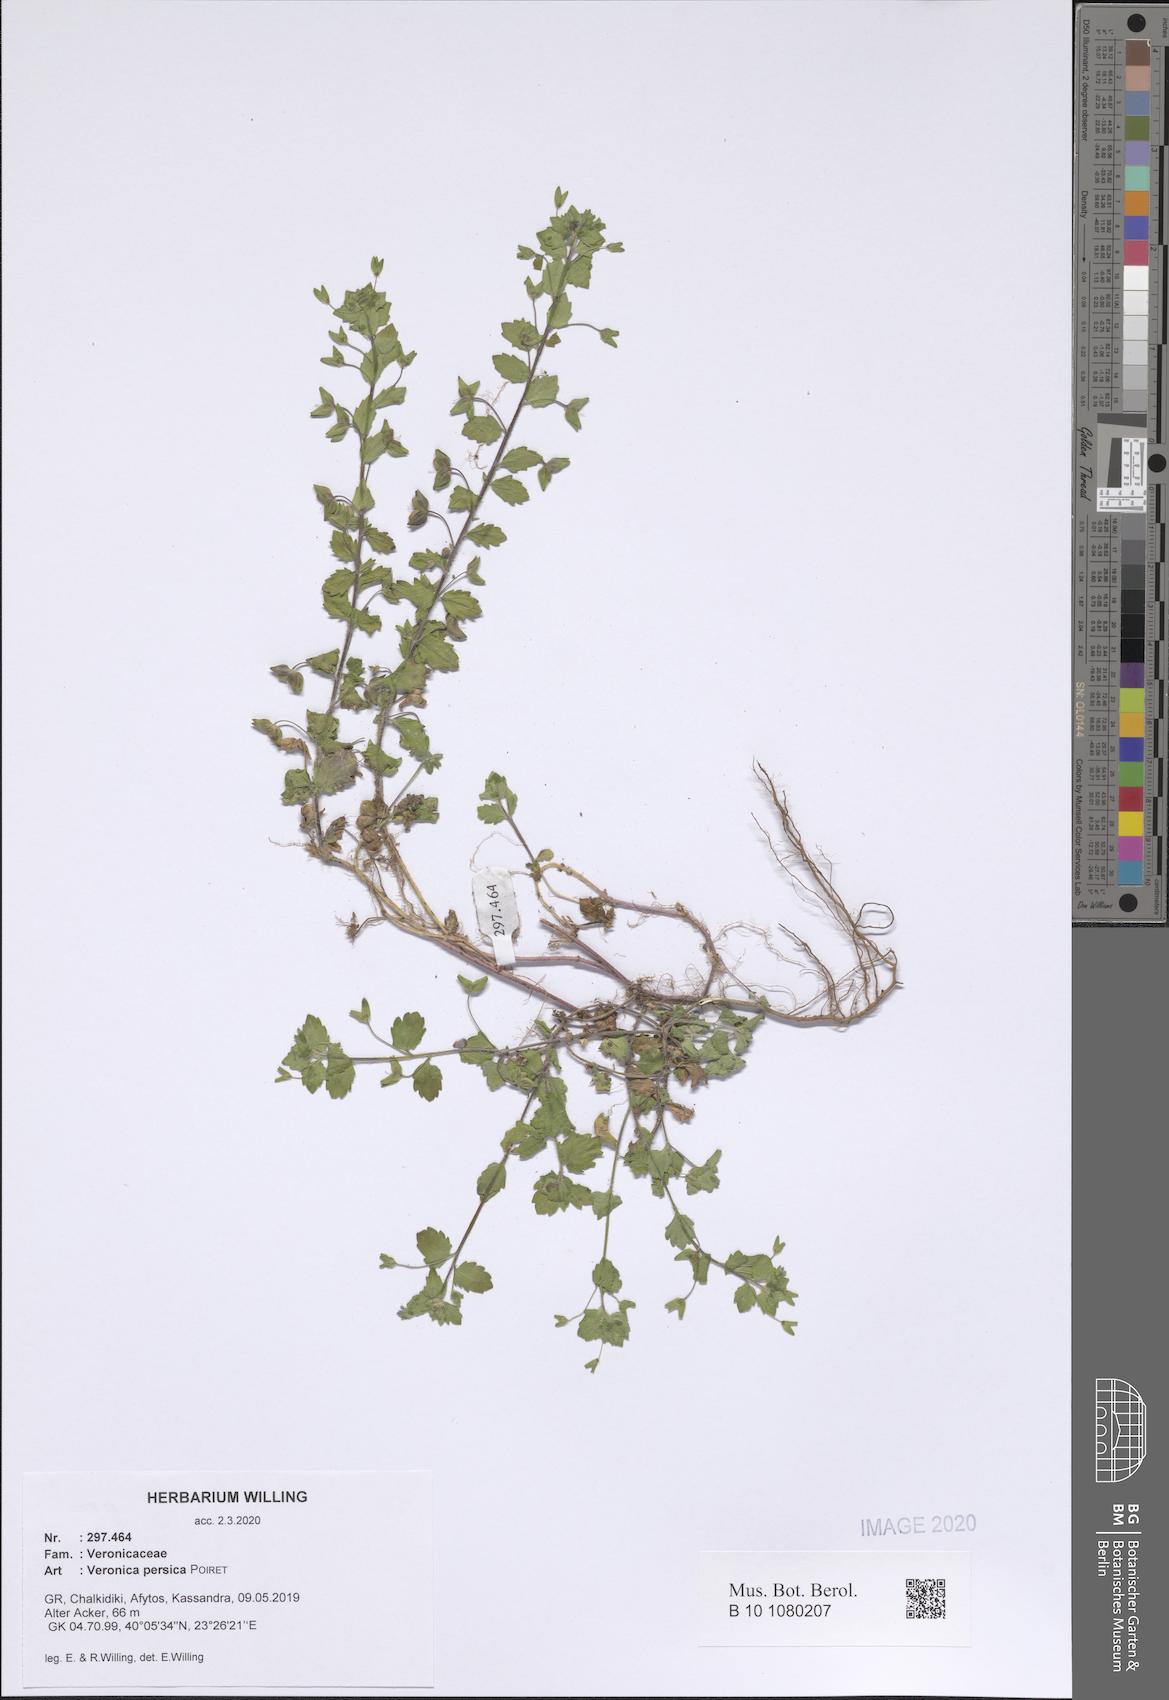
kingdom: Plantae
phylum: Tracheophyta
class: Magnoliopsida
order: Lamiales
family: Plantaginaceae
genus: Veronica
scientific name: Veronica persica
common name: Common field-speedwell
